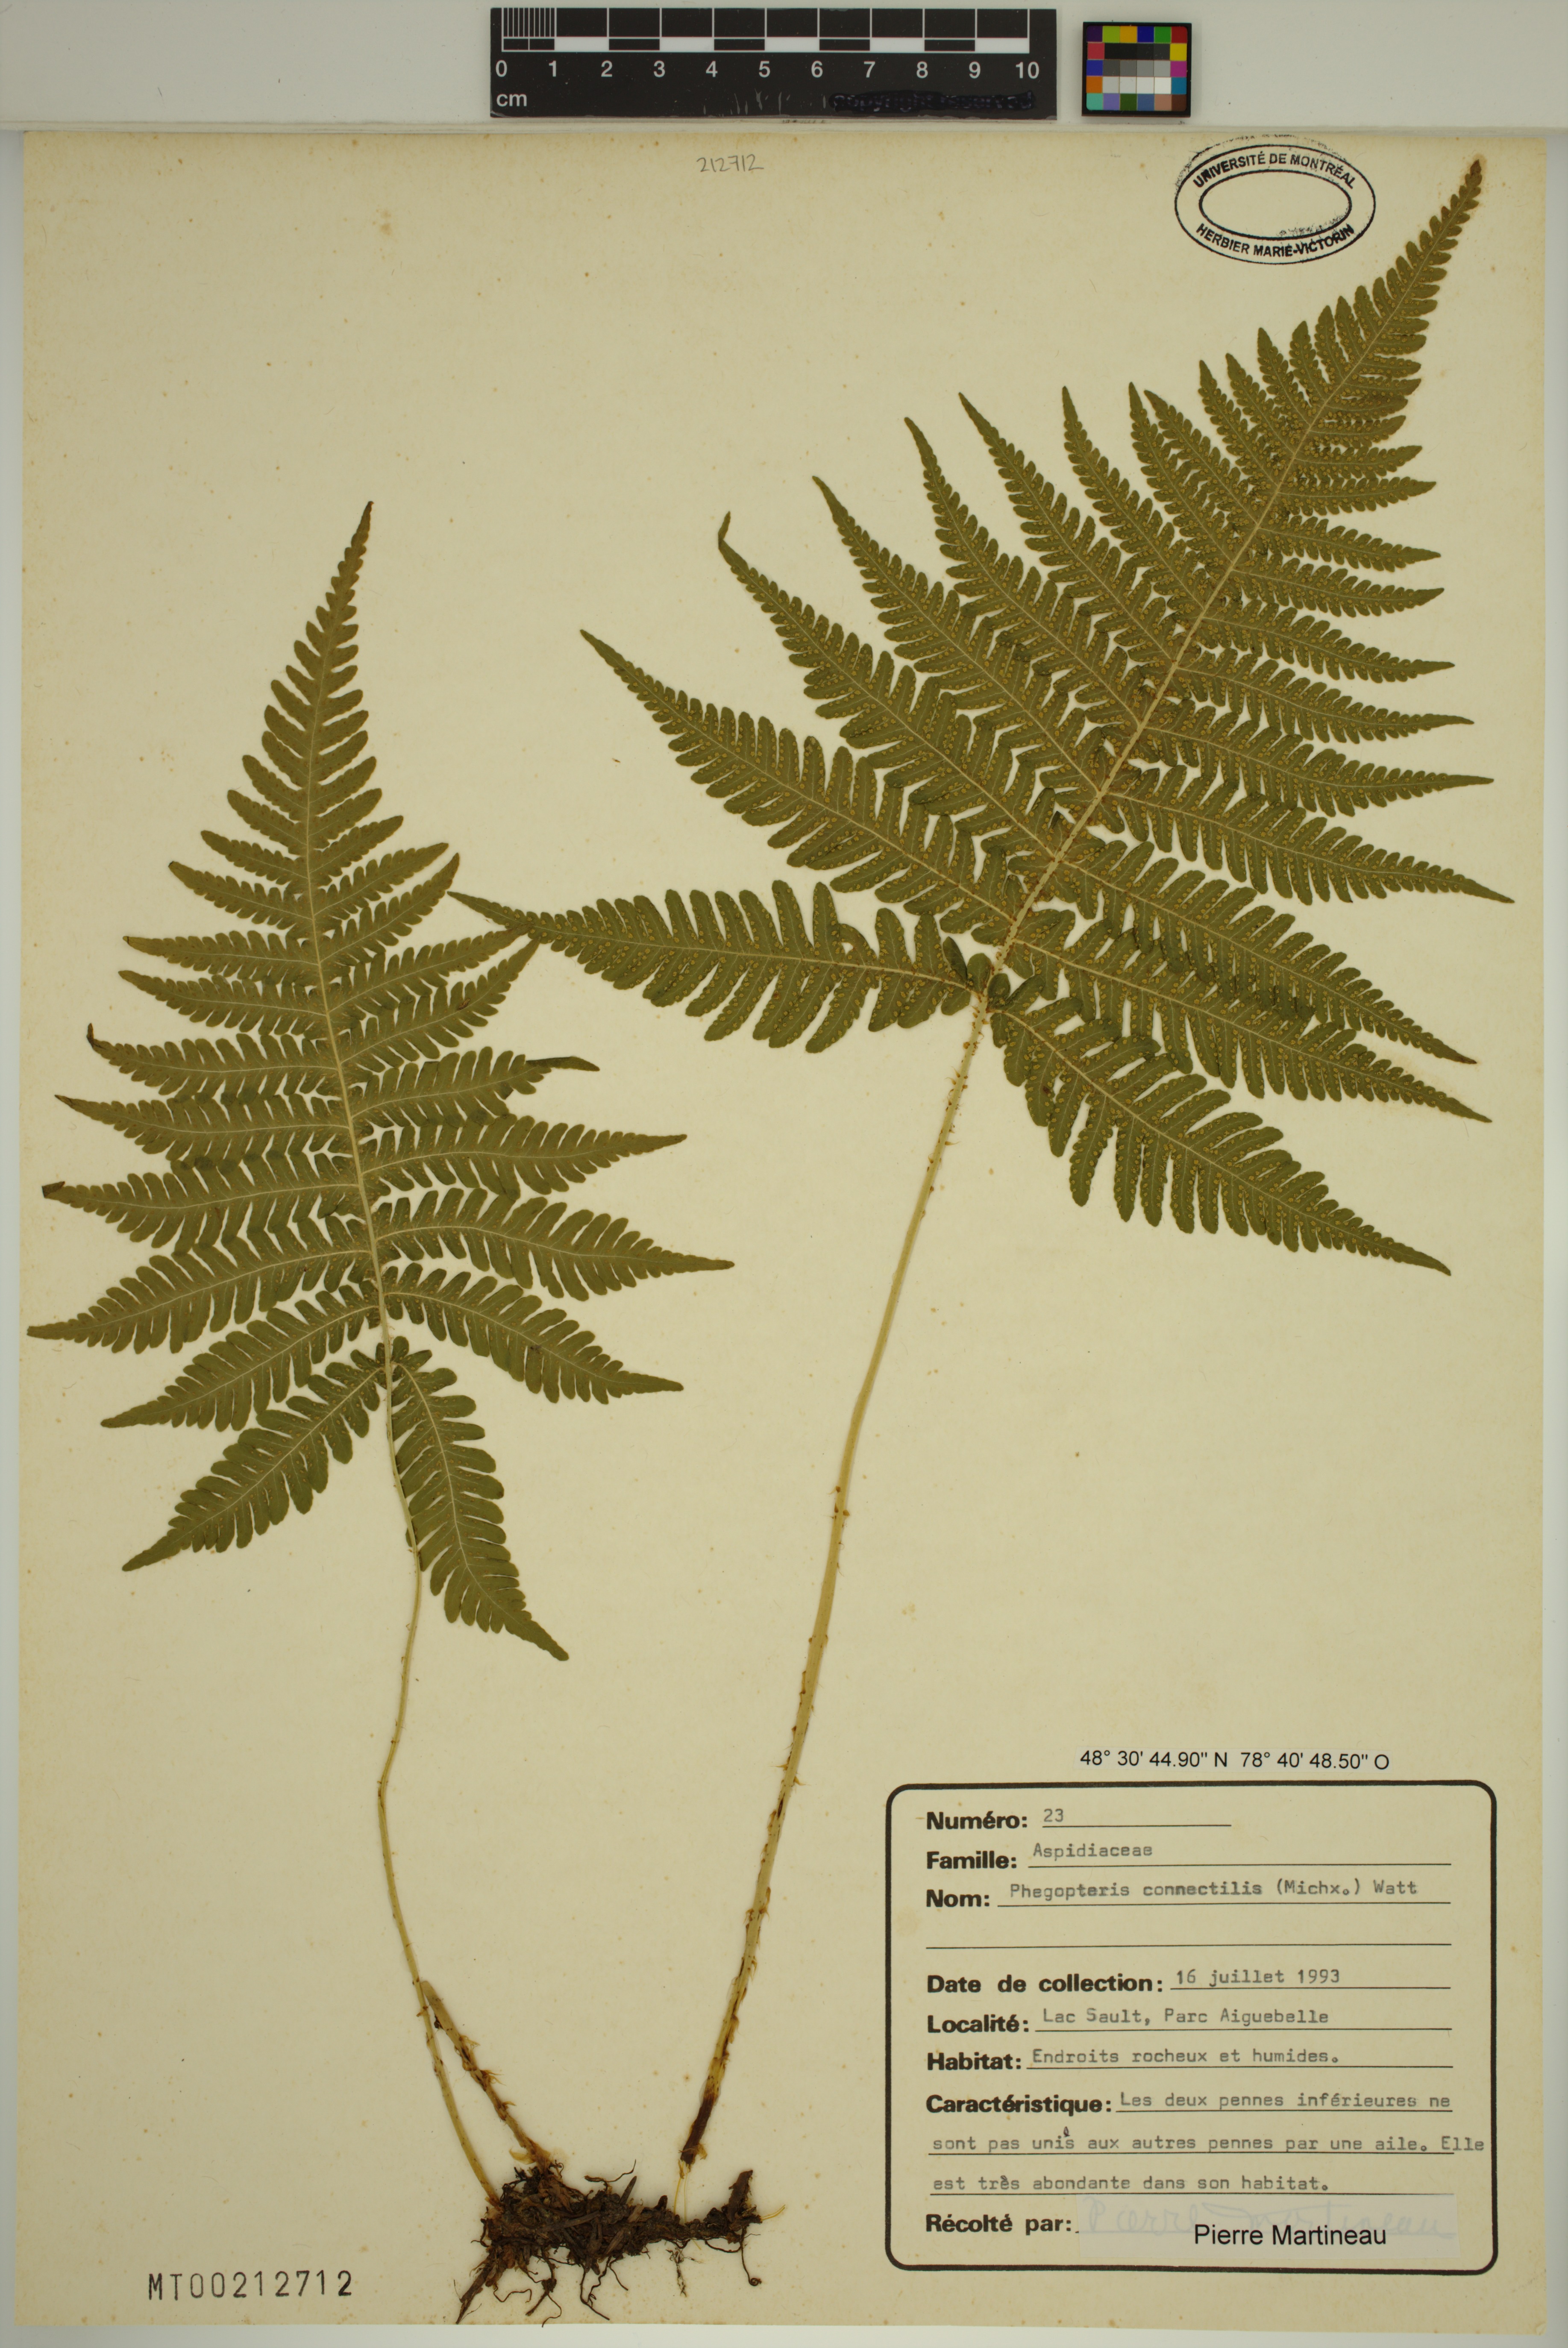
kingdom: Plantae
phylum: Tracheophyta
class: Polypodiopsida
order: Polypodiales
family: Thelypteridaceae
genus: Phegopteris
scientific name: Phegopteris connectilis
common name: Beech fern
